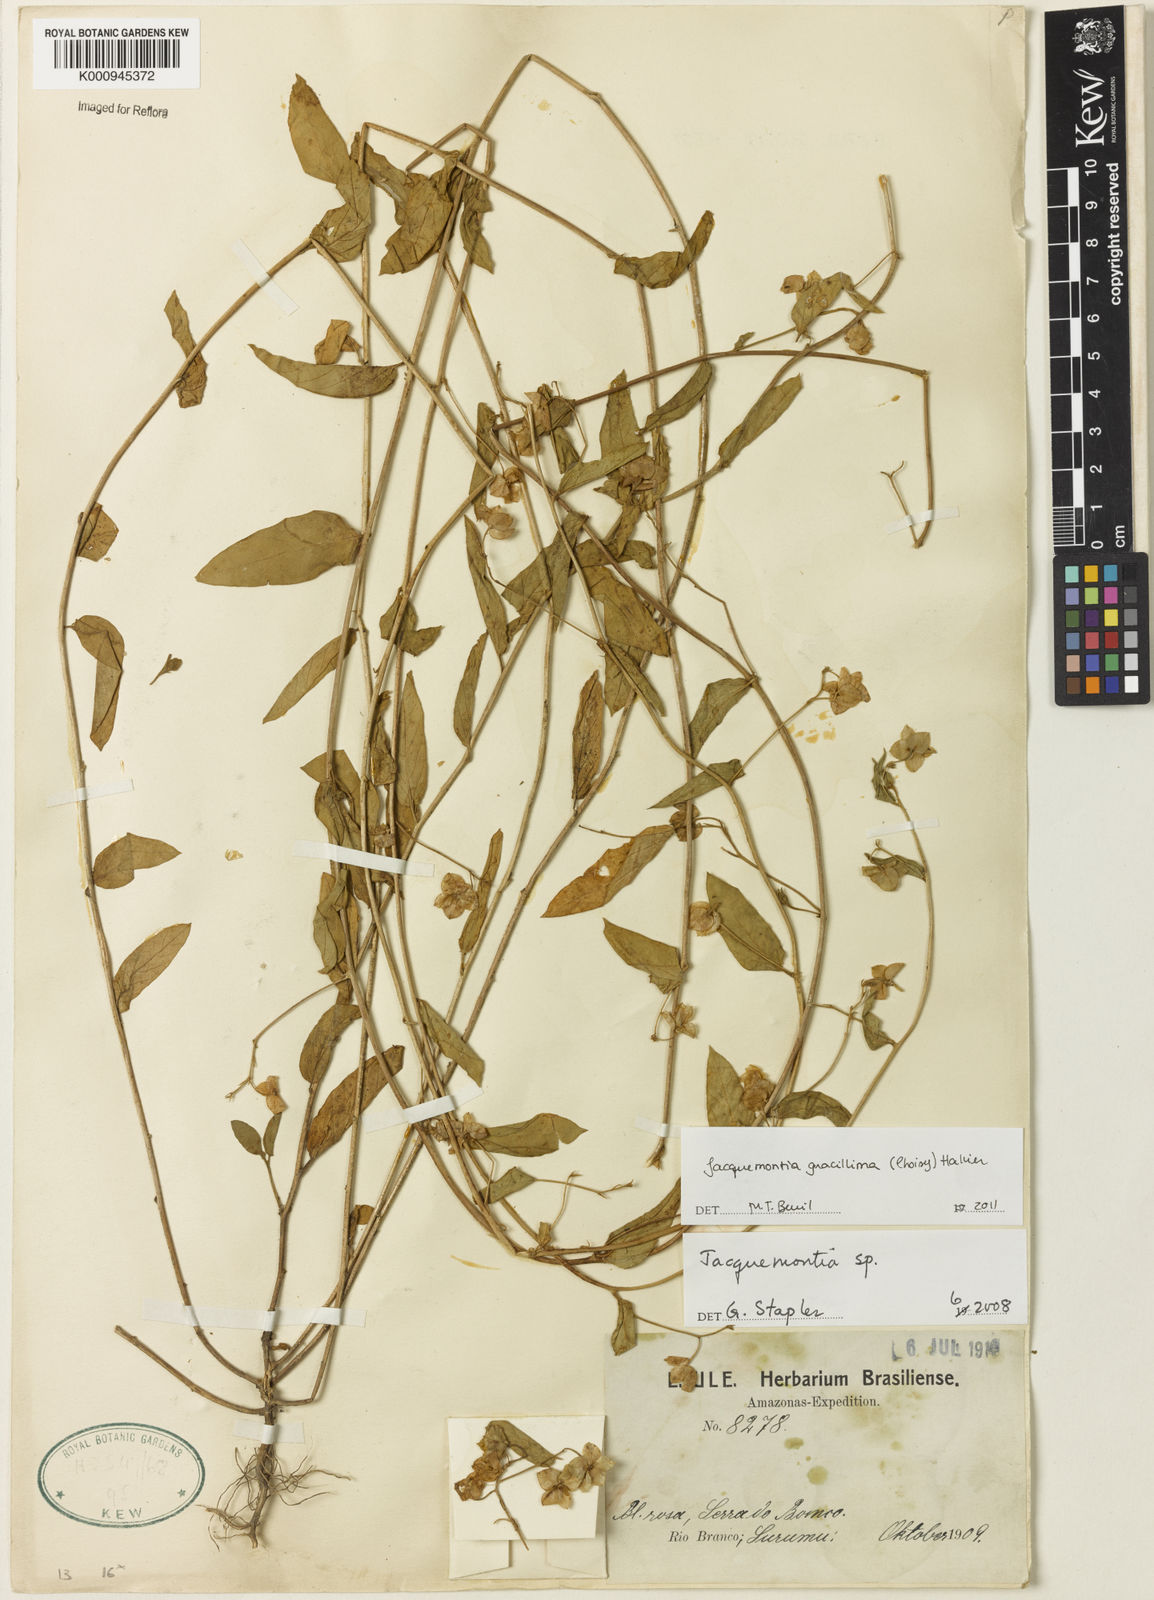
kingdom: Plantae
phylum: Tracheophyta
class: Magnoliopsida
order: Solanales
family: Convolvulaceae
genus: Jacquemontia
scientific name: Jacquemontia gracillima
